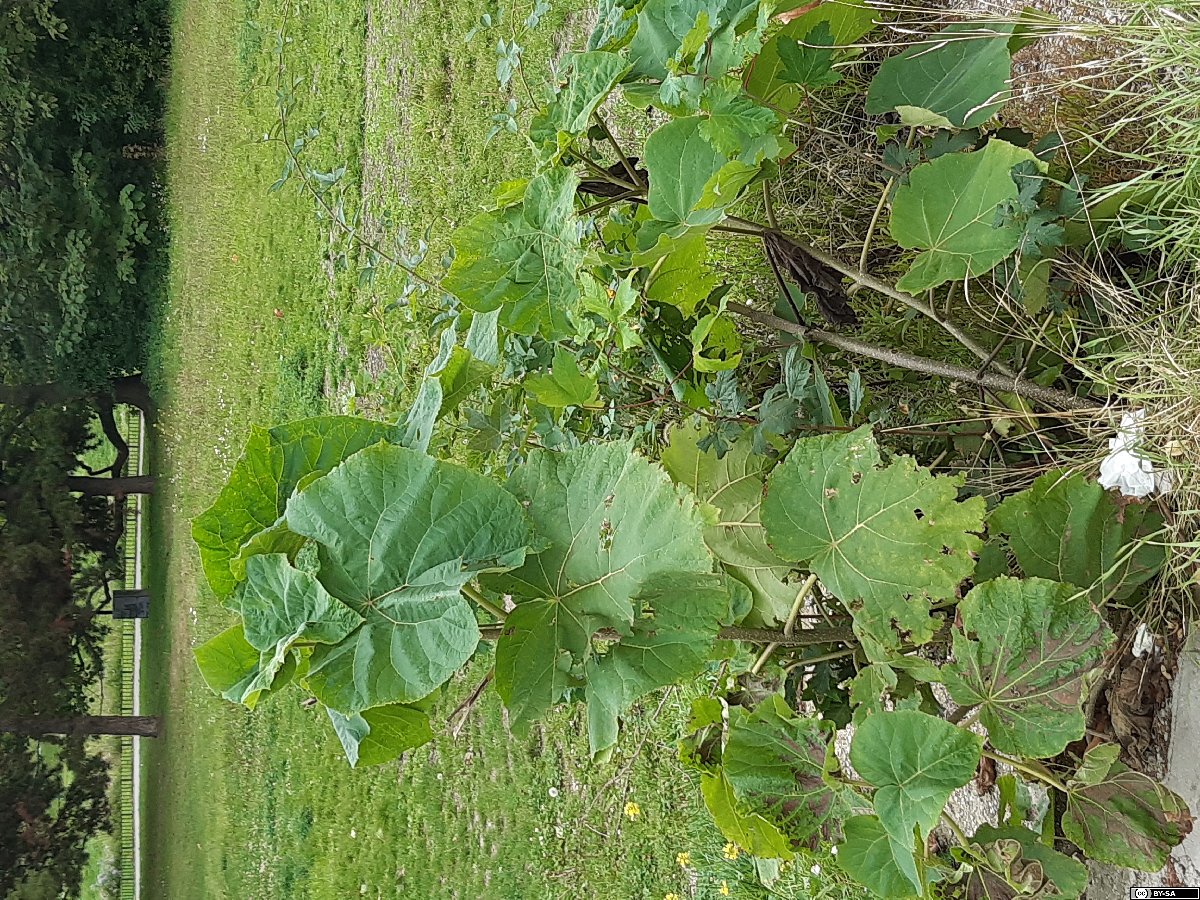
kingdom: Plantae
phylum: Tracheophyta
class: Magnoliopsida
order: Lamiales
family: Paulowniaceae
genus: Paulownia
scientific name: Paulownia tomentosa
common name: Foxglove-tree
